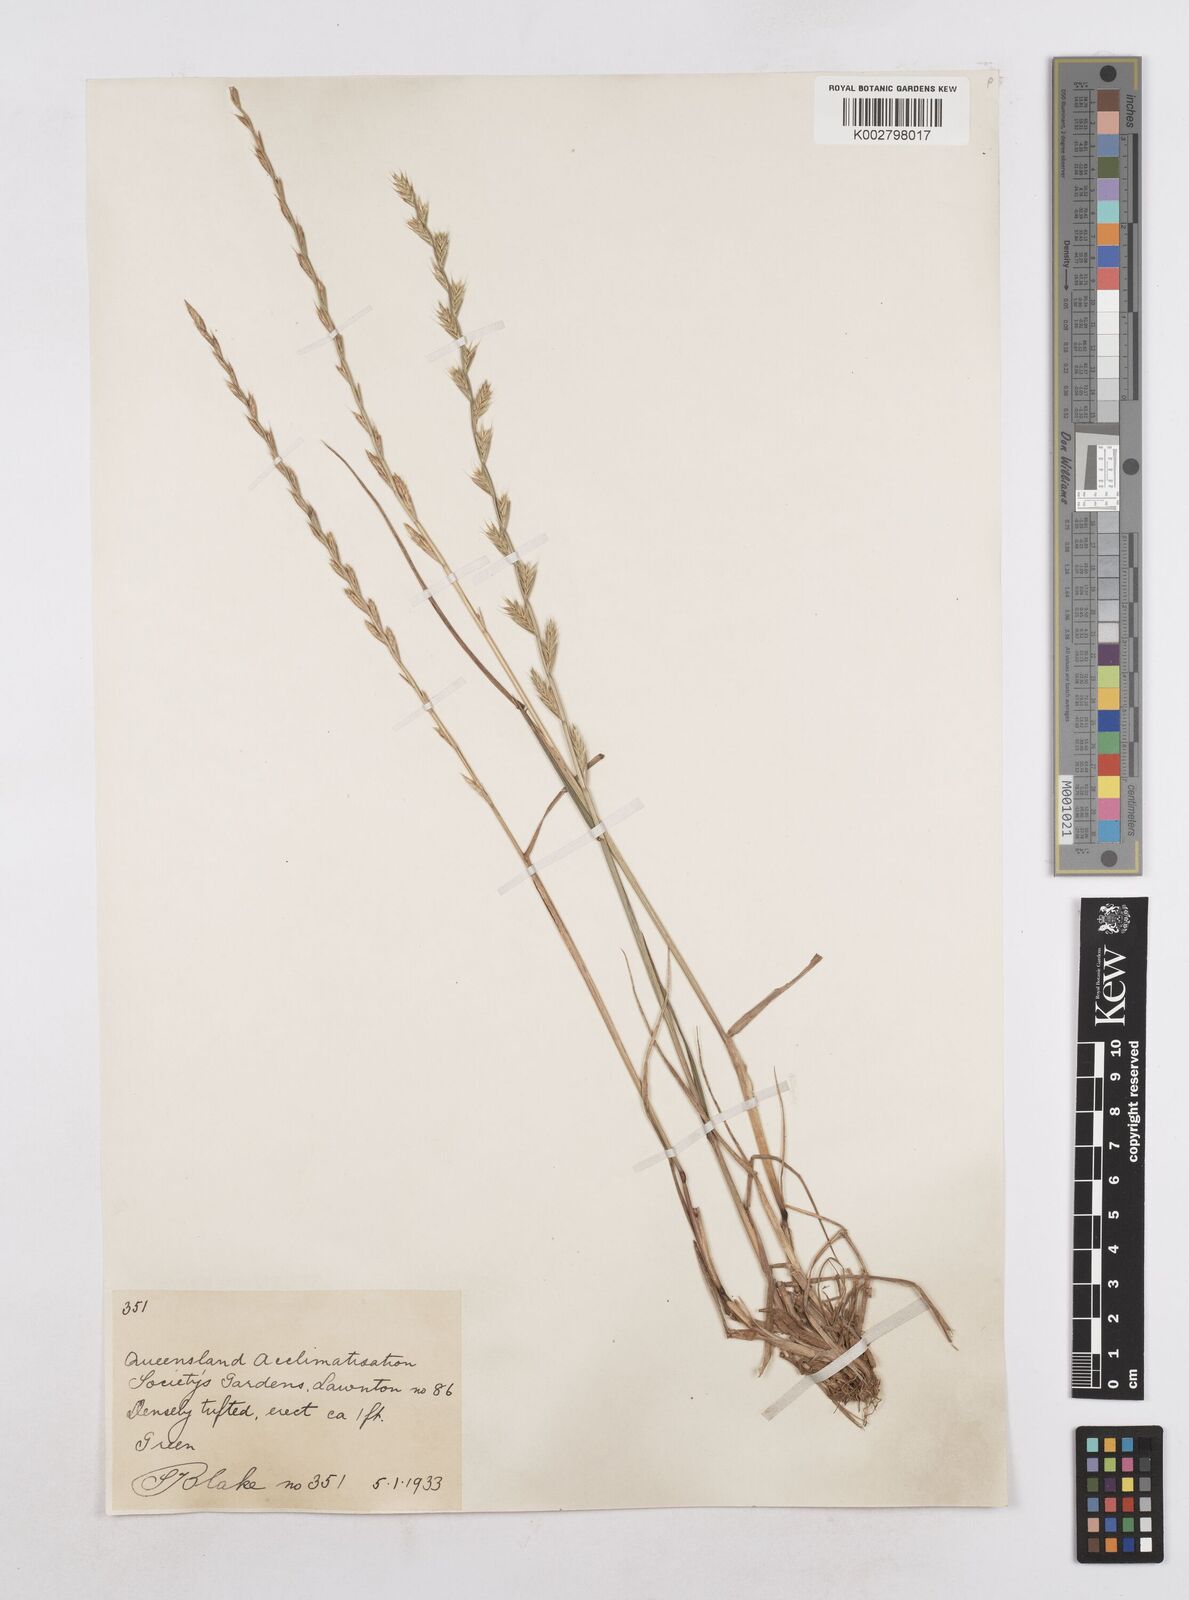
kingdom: Plantae
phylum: Tracheophyta
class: Liliopsida
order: Poales
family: Poaceae
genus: Lolium
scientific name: Lolium multiflorum
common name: Annual ryegrass
